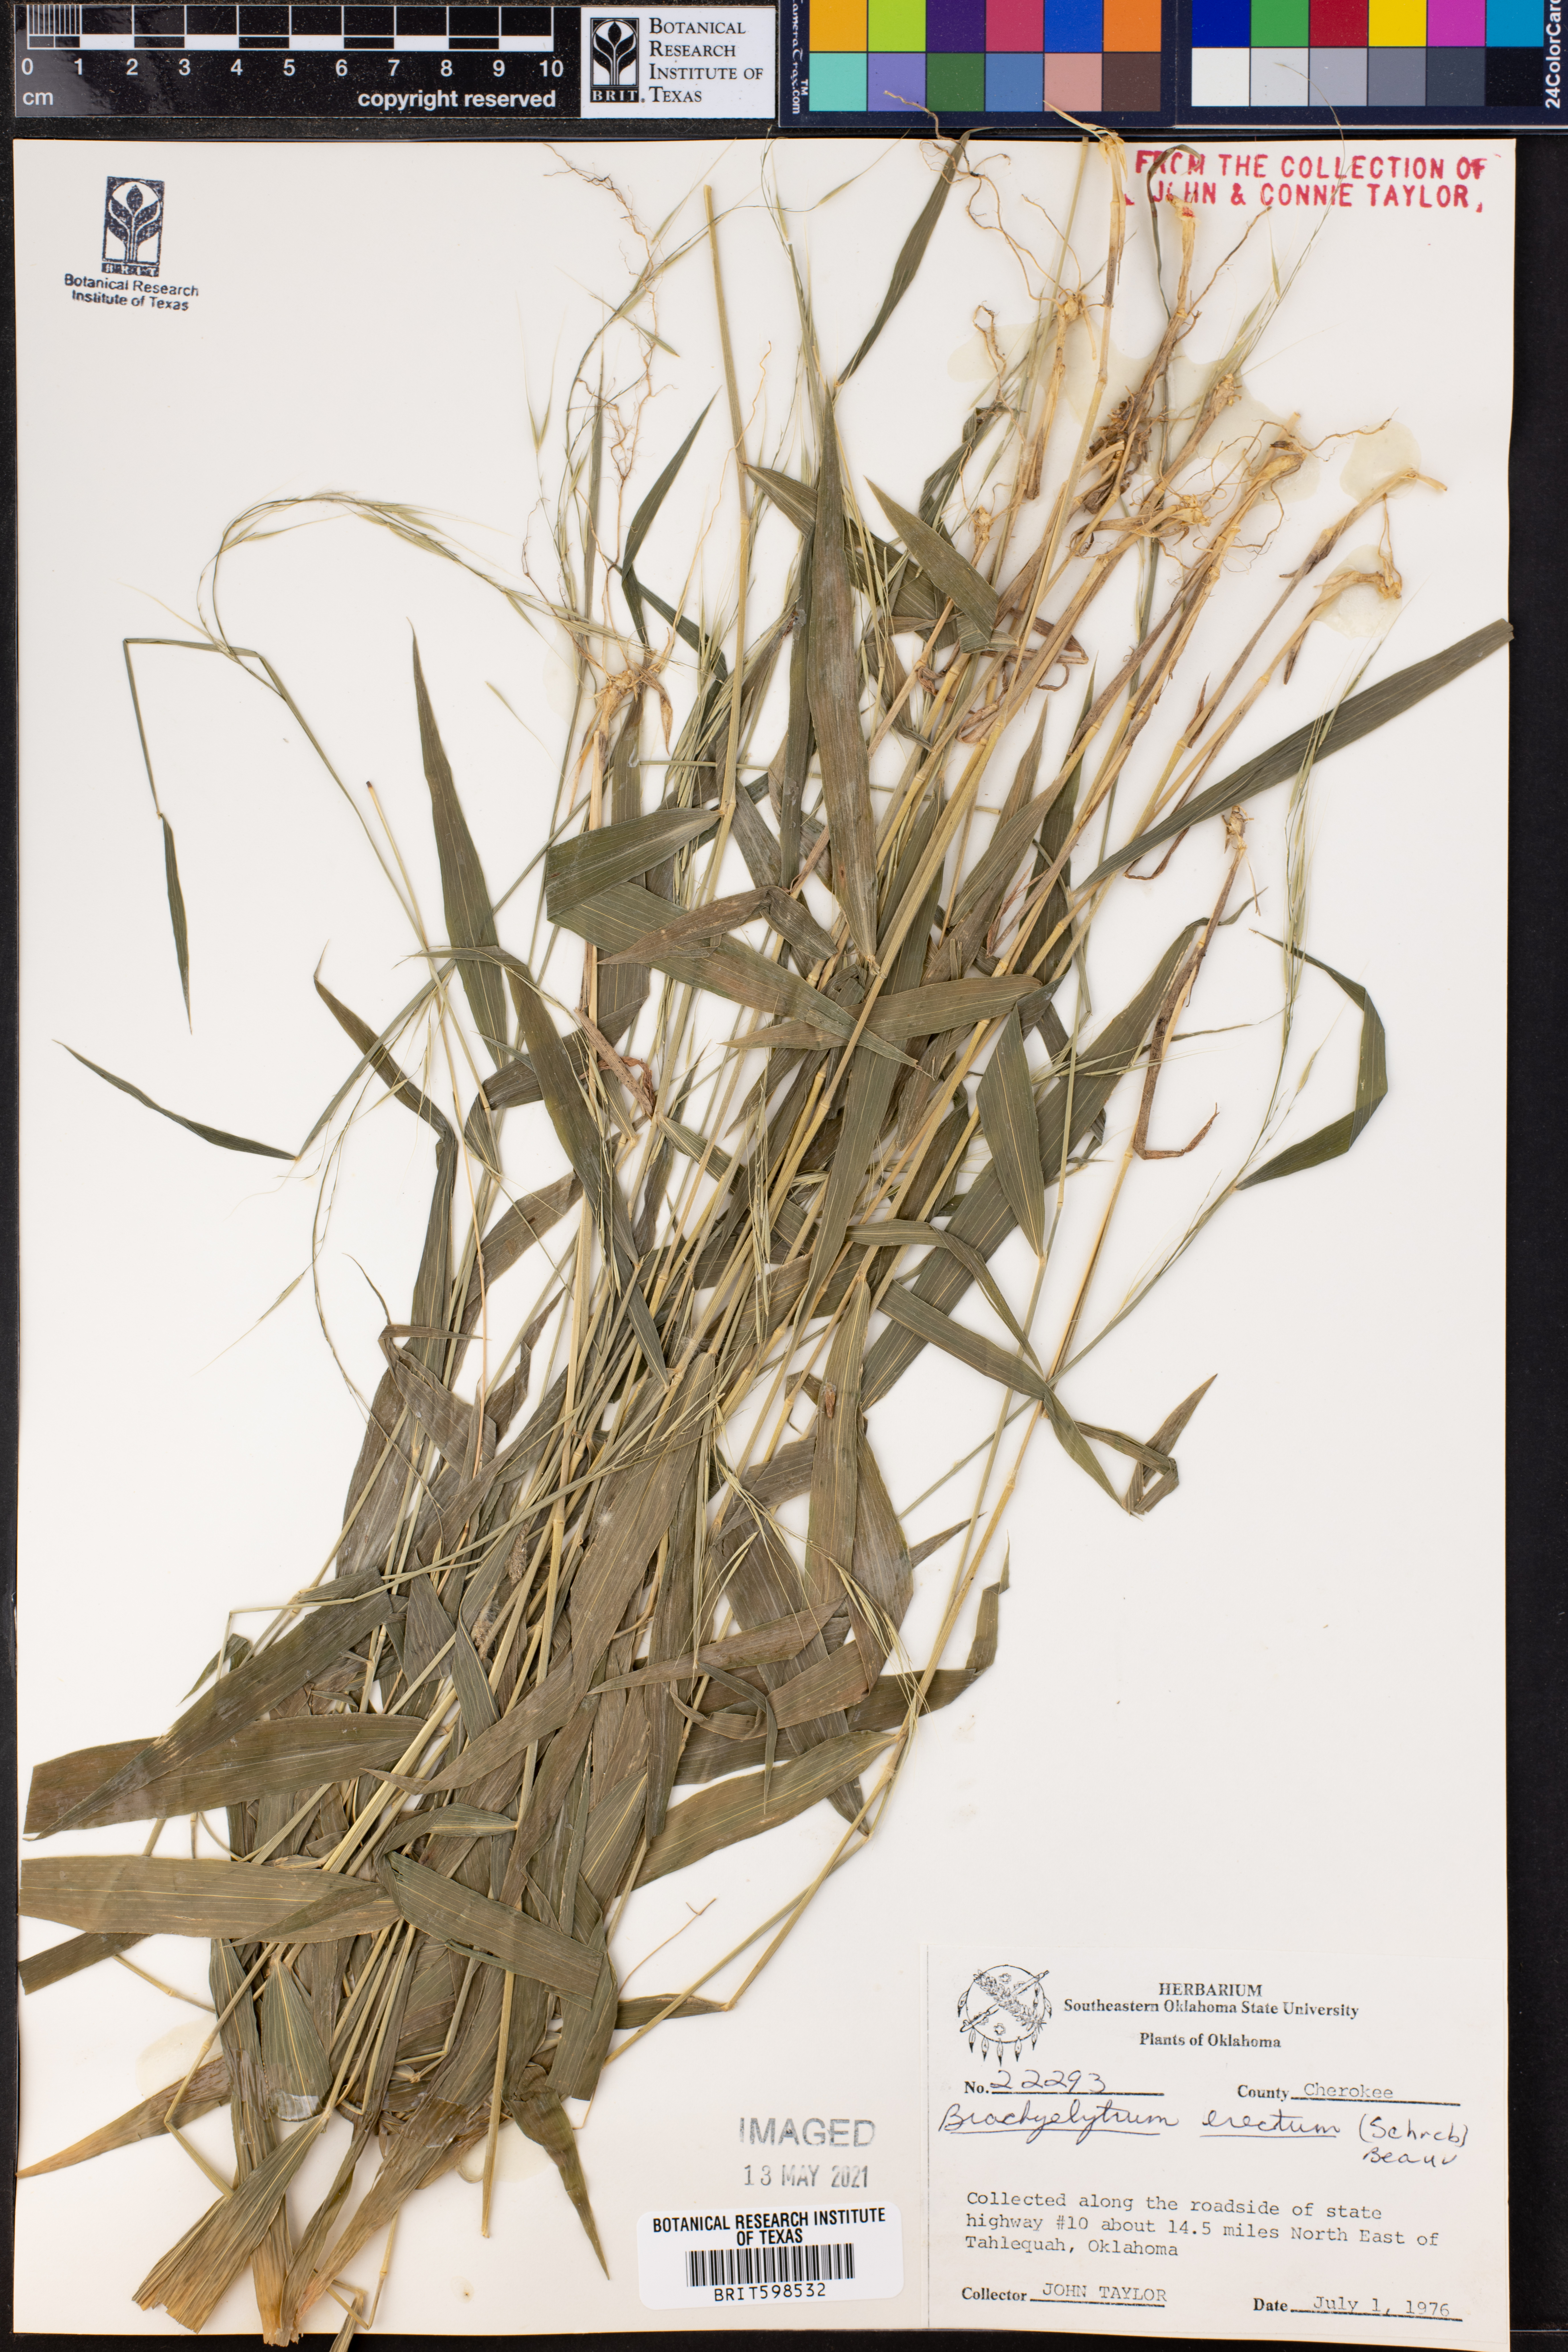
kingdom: Plantae
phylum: Tracheophyta
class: Liliopsida
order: Poales
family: Poaceae
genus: Brachyelytrum
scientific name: Brachyelytrum erectum
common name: Bearded shorthusk
